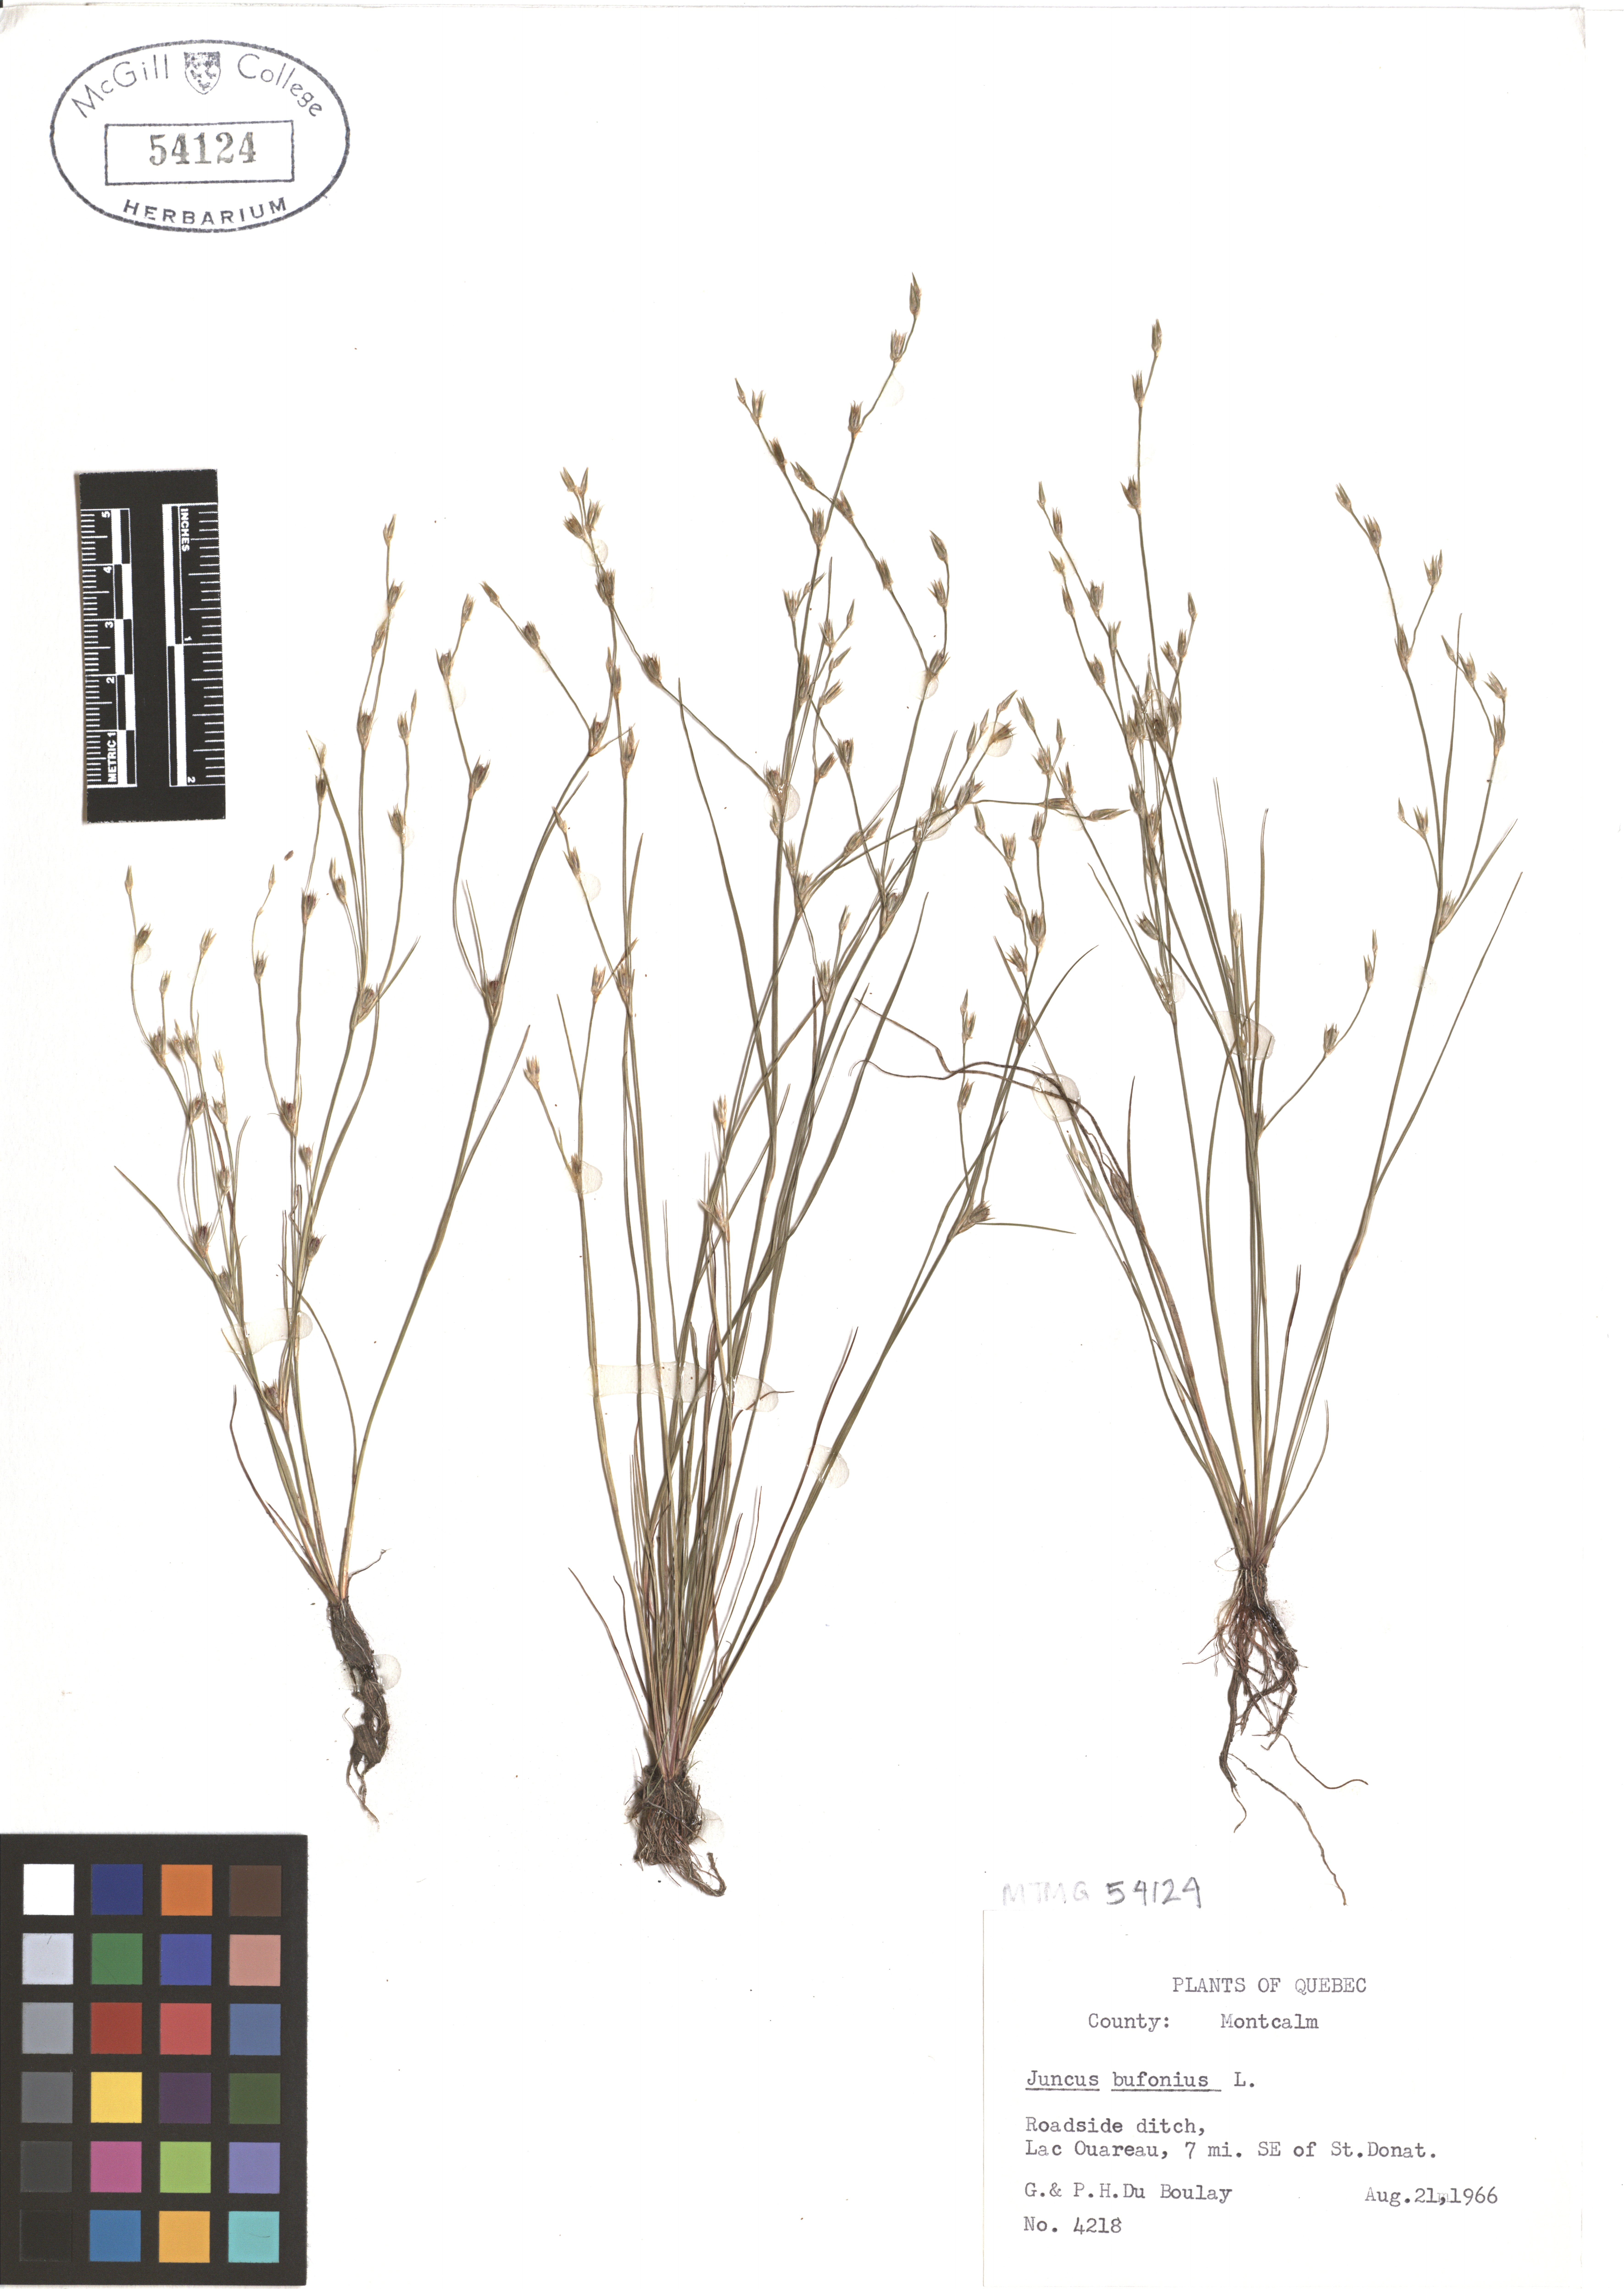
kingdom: Plantae
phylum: Tracheophyta
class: Liliopsida
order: Poales
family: Juncaceae
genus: Juncus
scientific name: Juncus bufonius
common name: Toad rush
